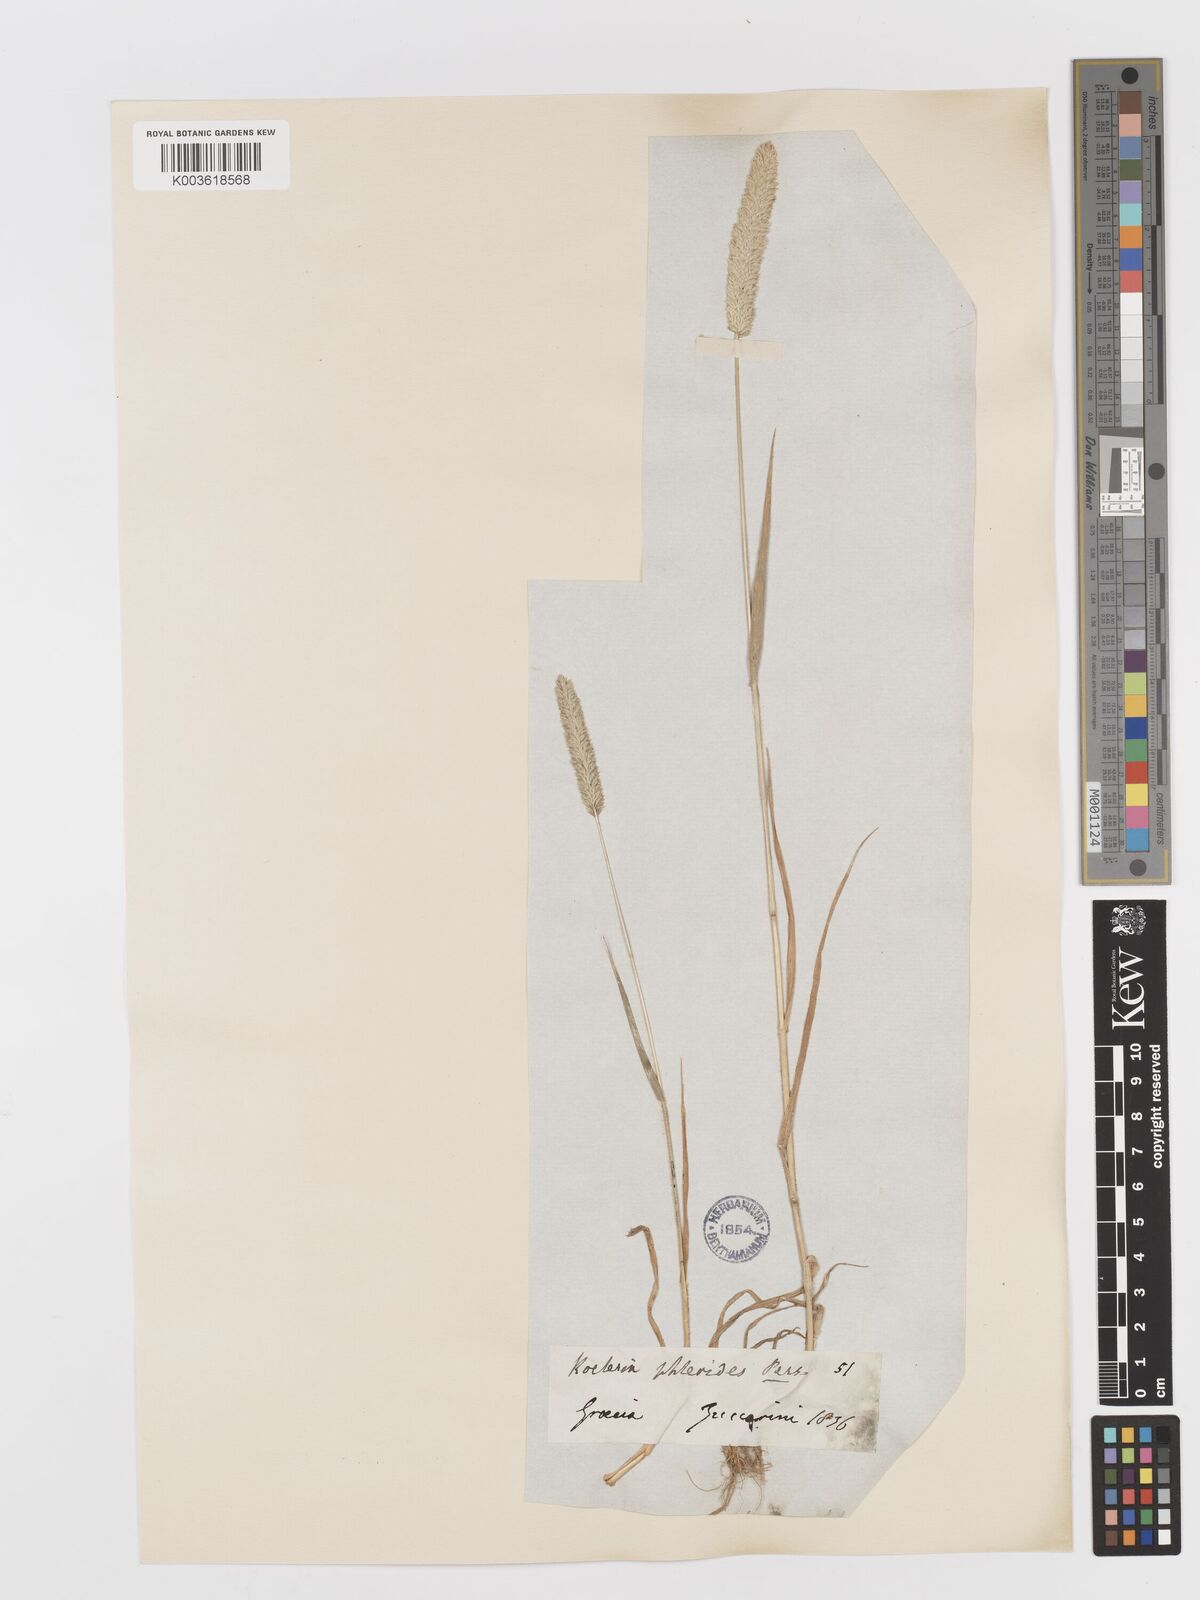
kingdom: Plantae
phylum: Tracheophyta
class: Liliopsida
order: Poales
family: Poaceae
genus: Rostraria
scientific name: Rostraria cristata
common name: Mediterranean hair-grass
